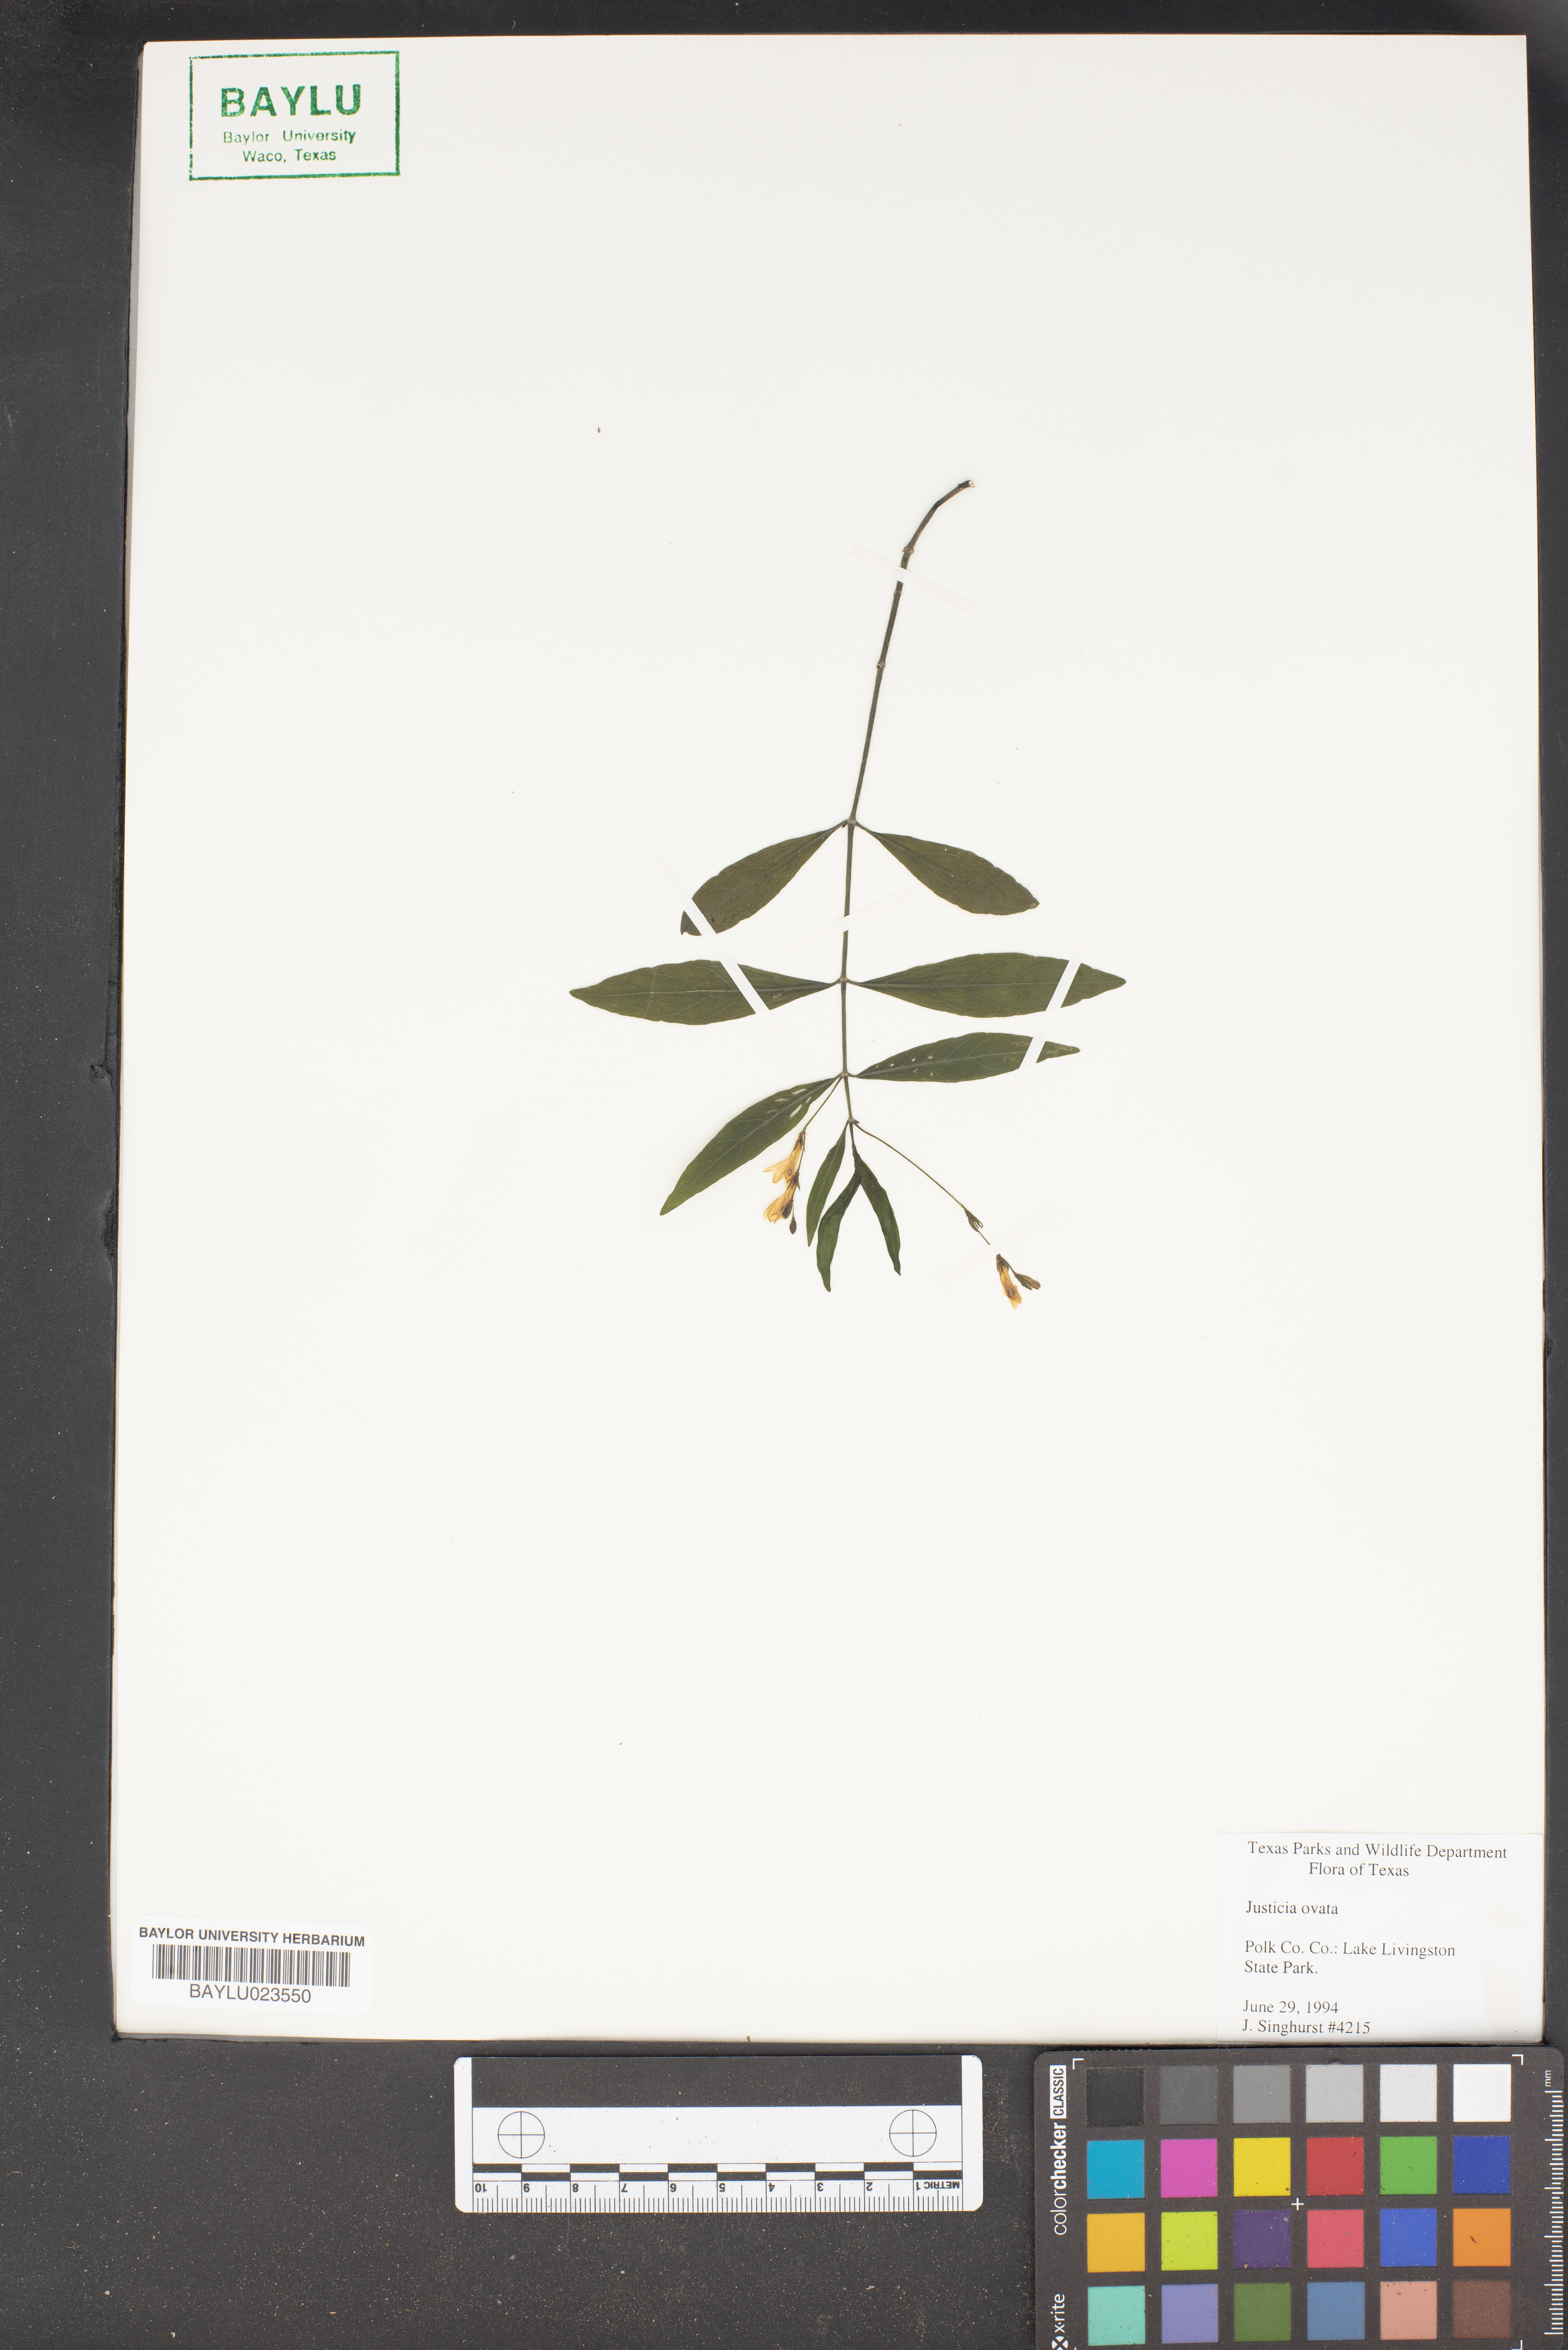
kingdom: Plantae
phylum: Tracheophyta
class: Magnoliopsida
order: Lamiales
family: Acanthaceae
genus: Dianthera
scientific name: Dianthera ovata
